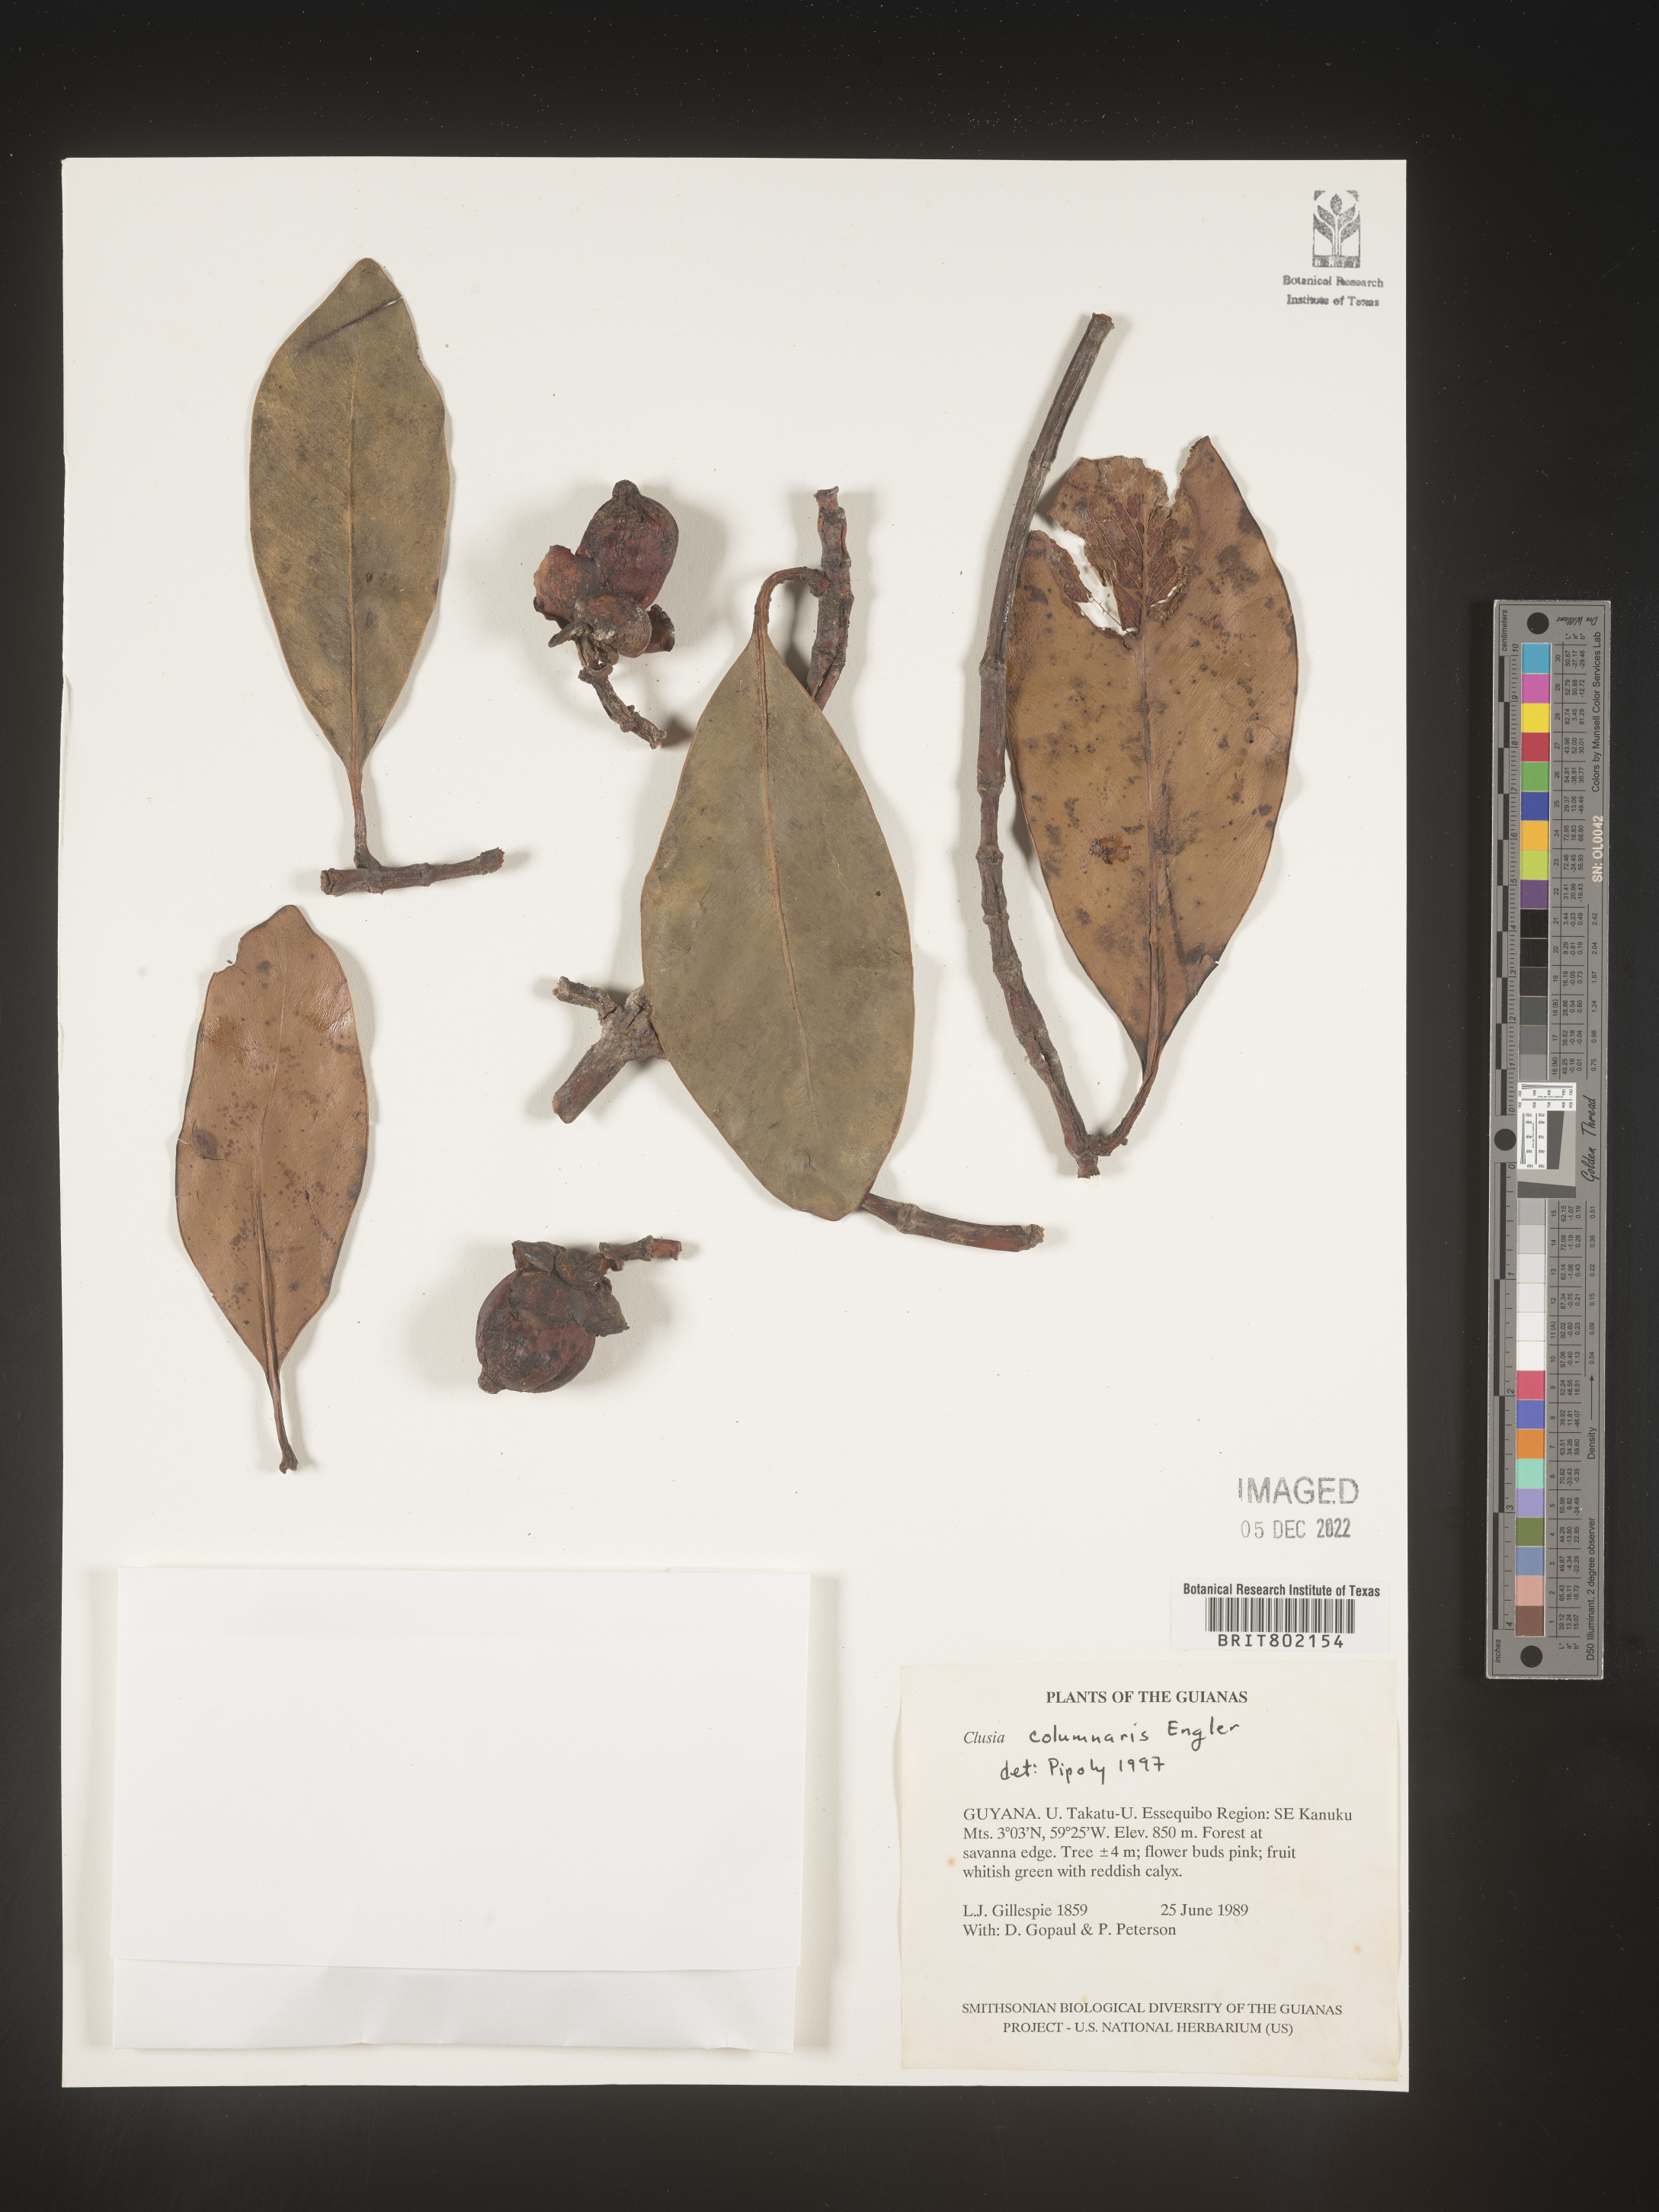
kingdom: Plantae
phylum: Tracheophyta
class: Magnoliopsida
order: Malpighiales
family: Clusiaceae
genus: Clusia
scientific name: Clusia columnaris
